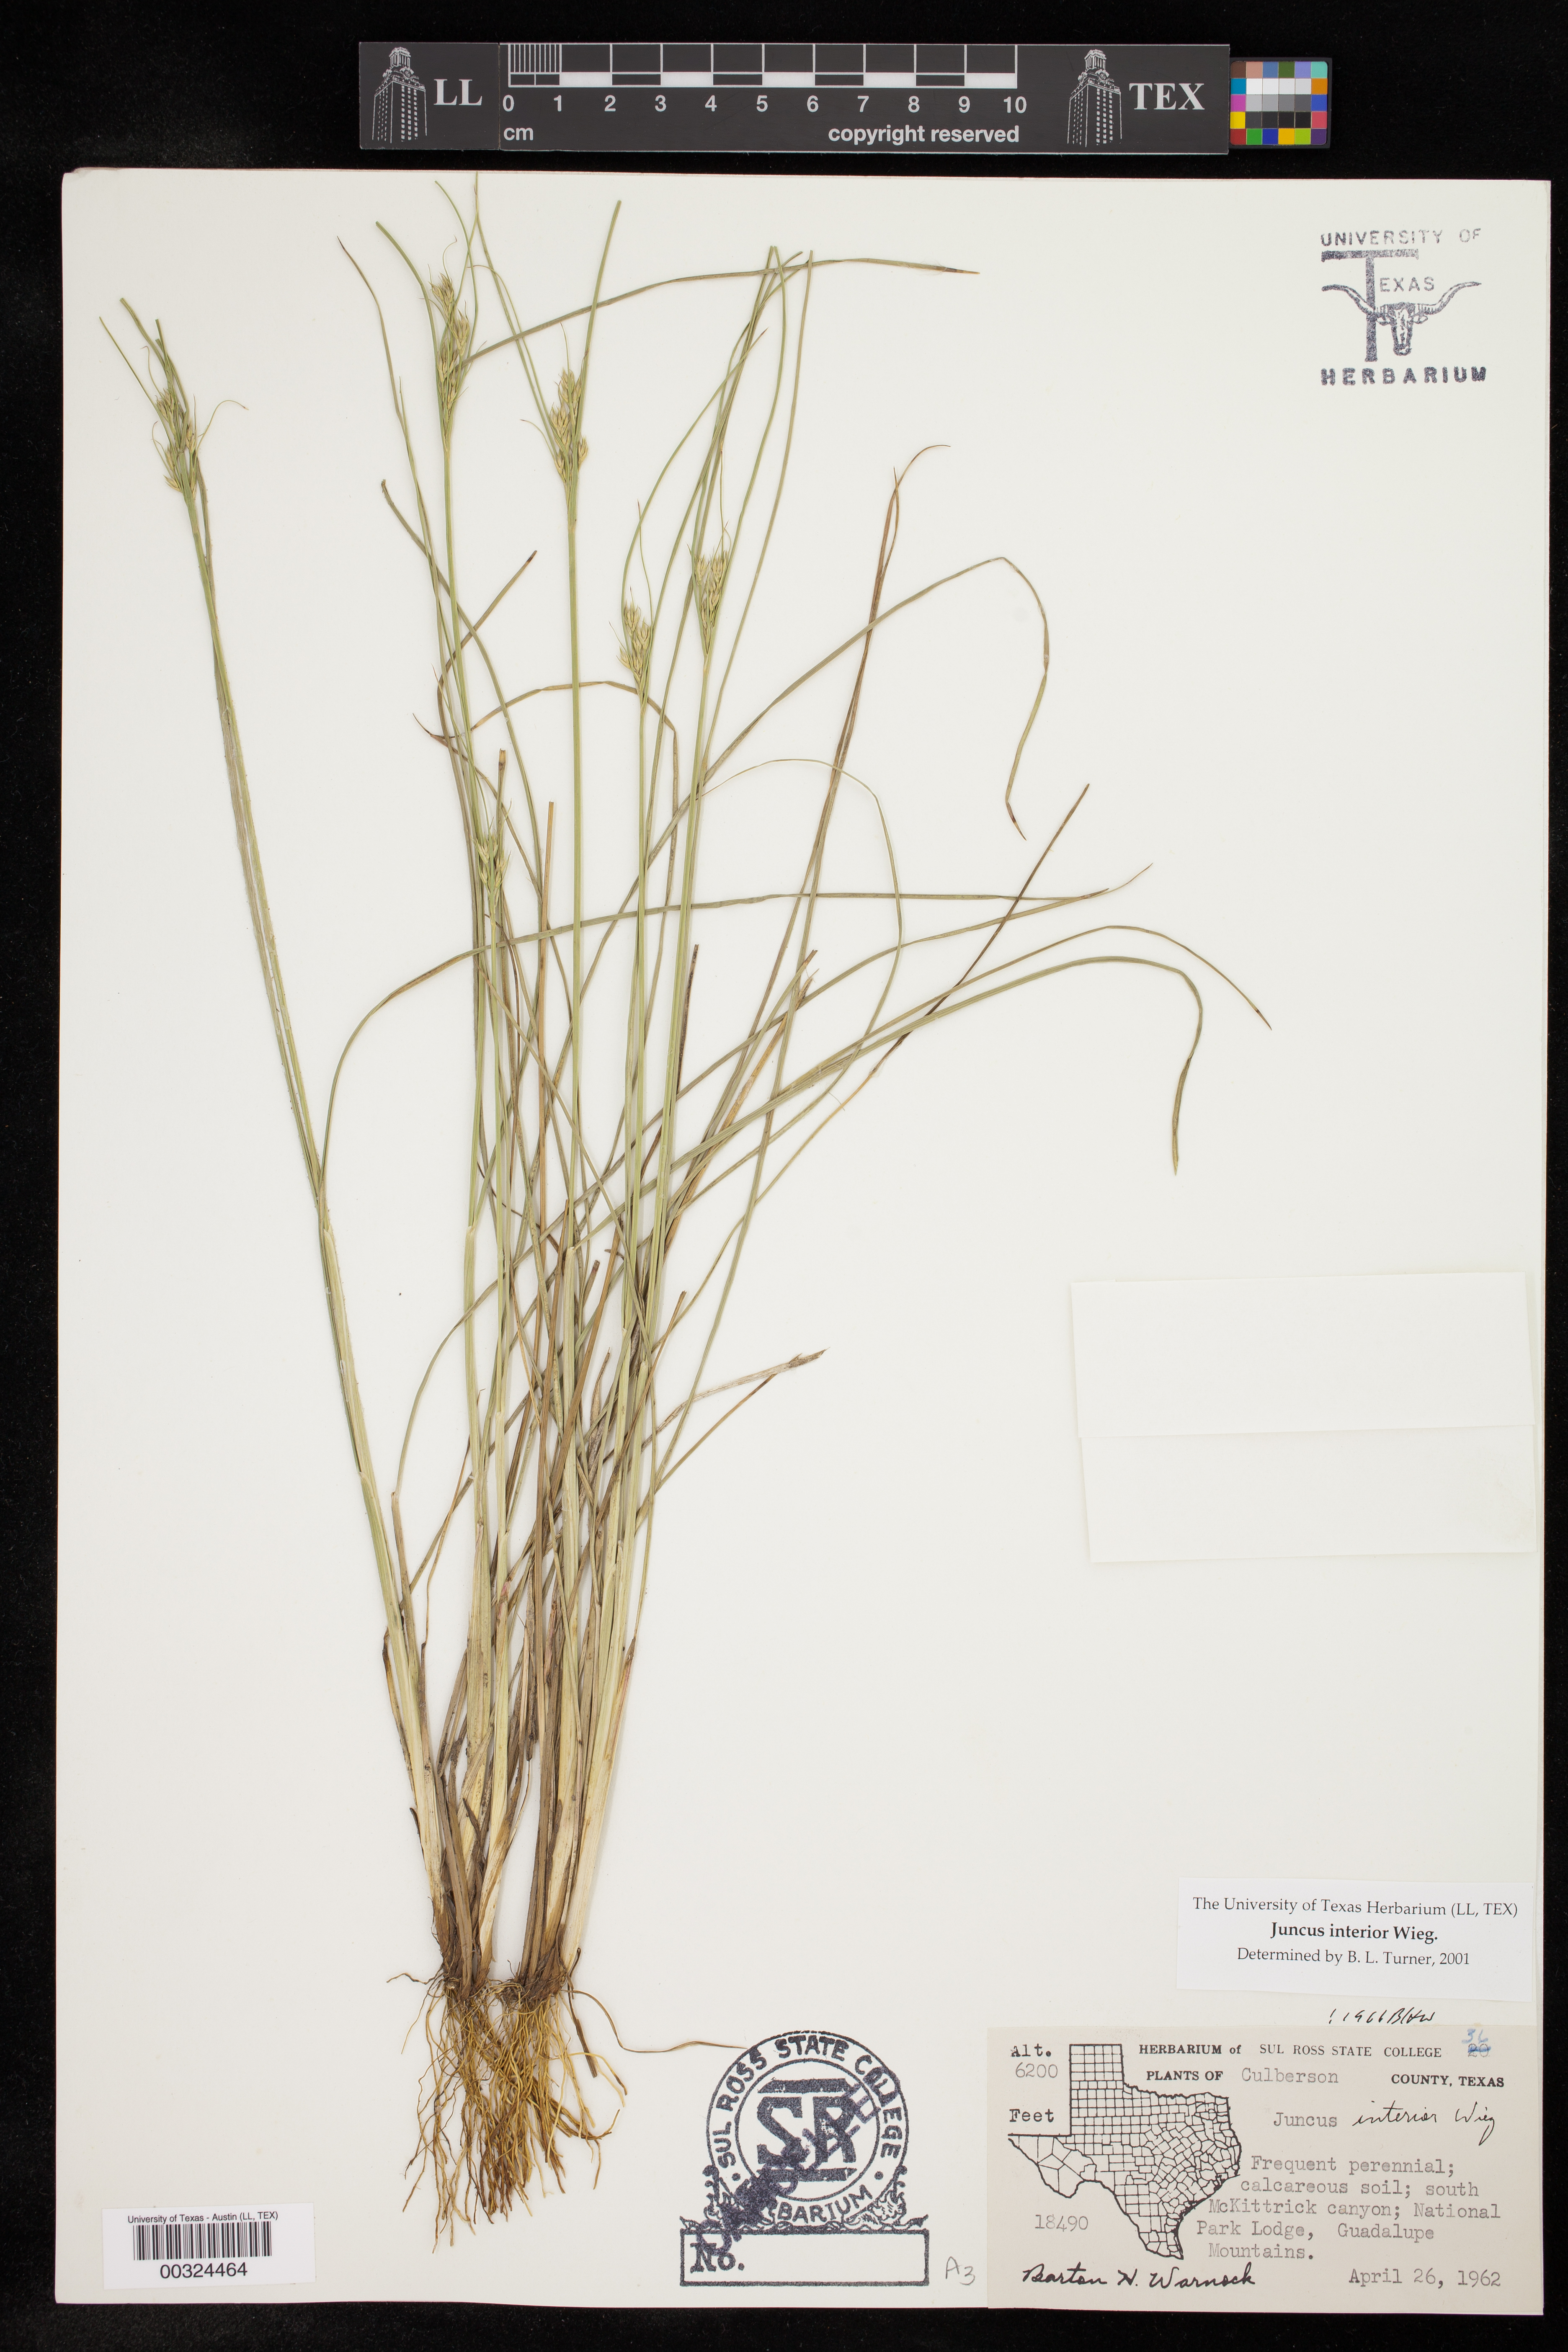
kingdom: Plantae
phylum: Tracheophyta
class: Liliopsida
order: Poales
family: Juncaceae
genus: Juncus
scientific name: Juncus interior
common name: Interior rush
